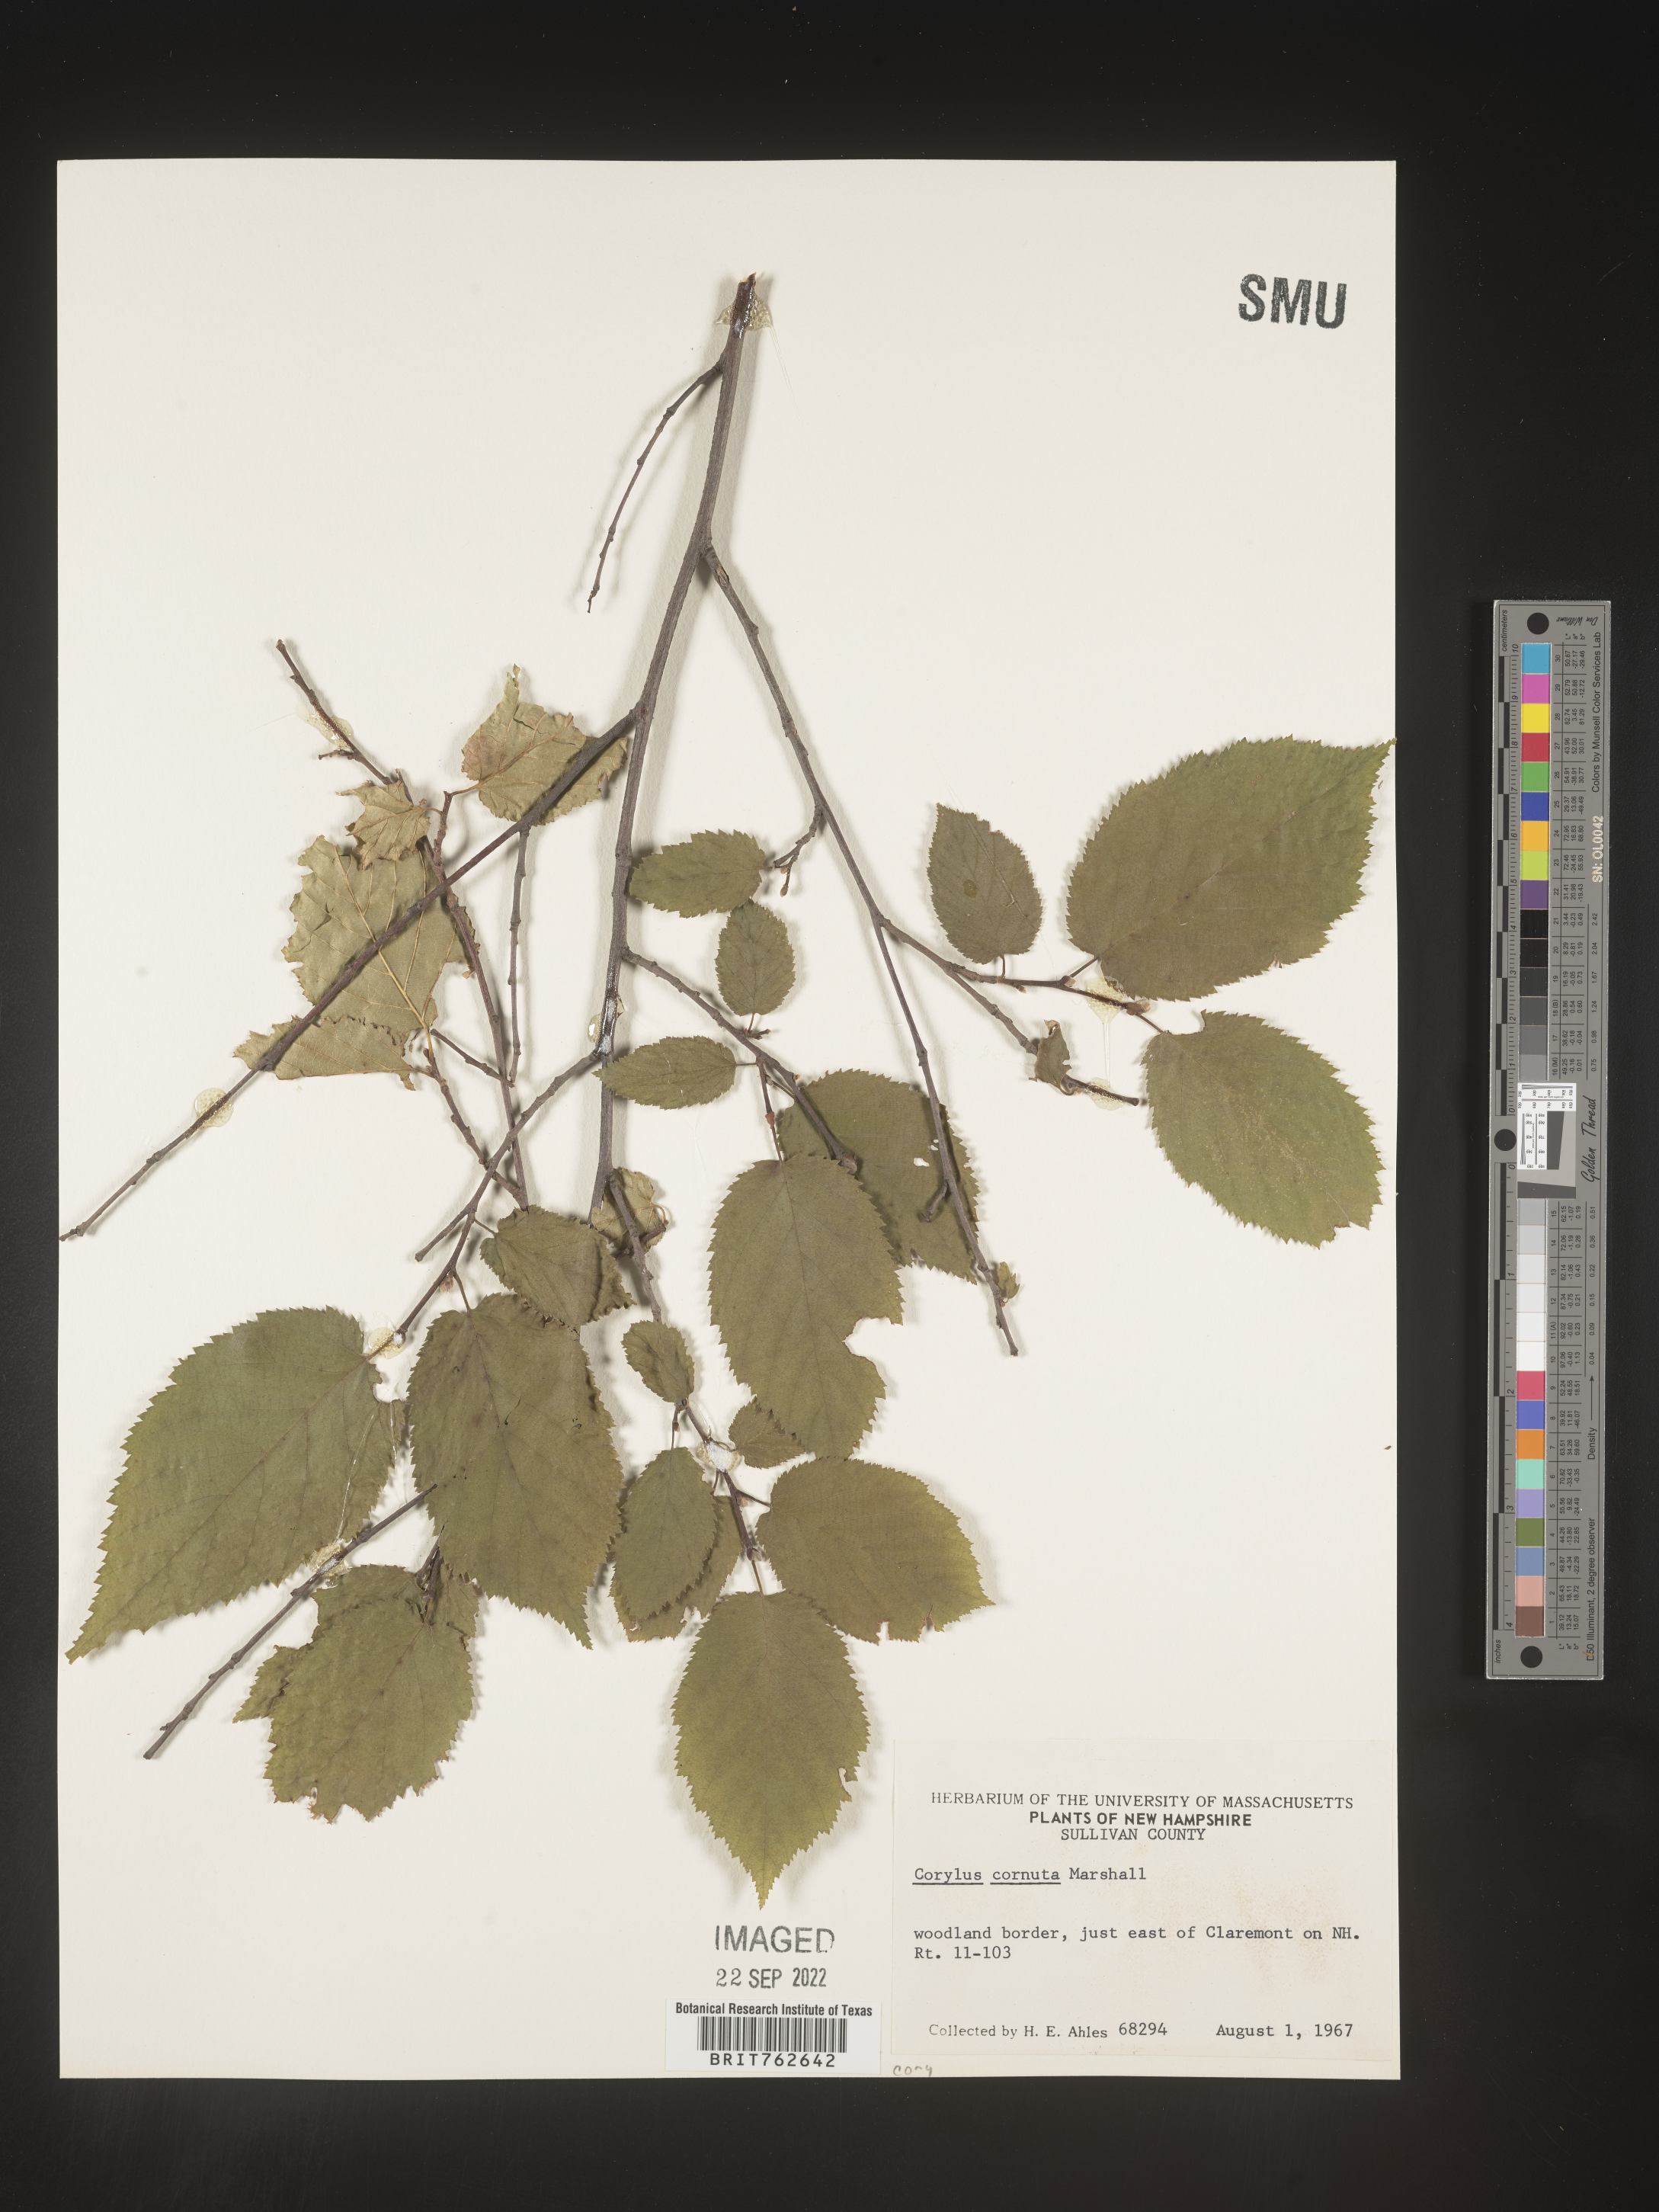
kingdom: Plantae
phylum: Tracheophyta
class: Magnoliopsida
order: Fagales
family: Betulaceae
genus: Corylus
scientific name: Corylus cornuta
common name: Beaked hazel
